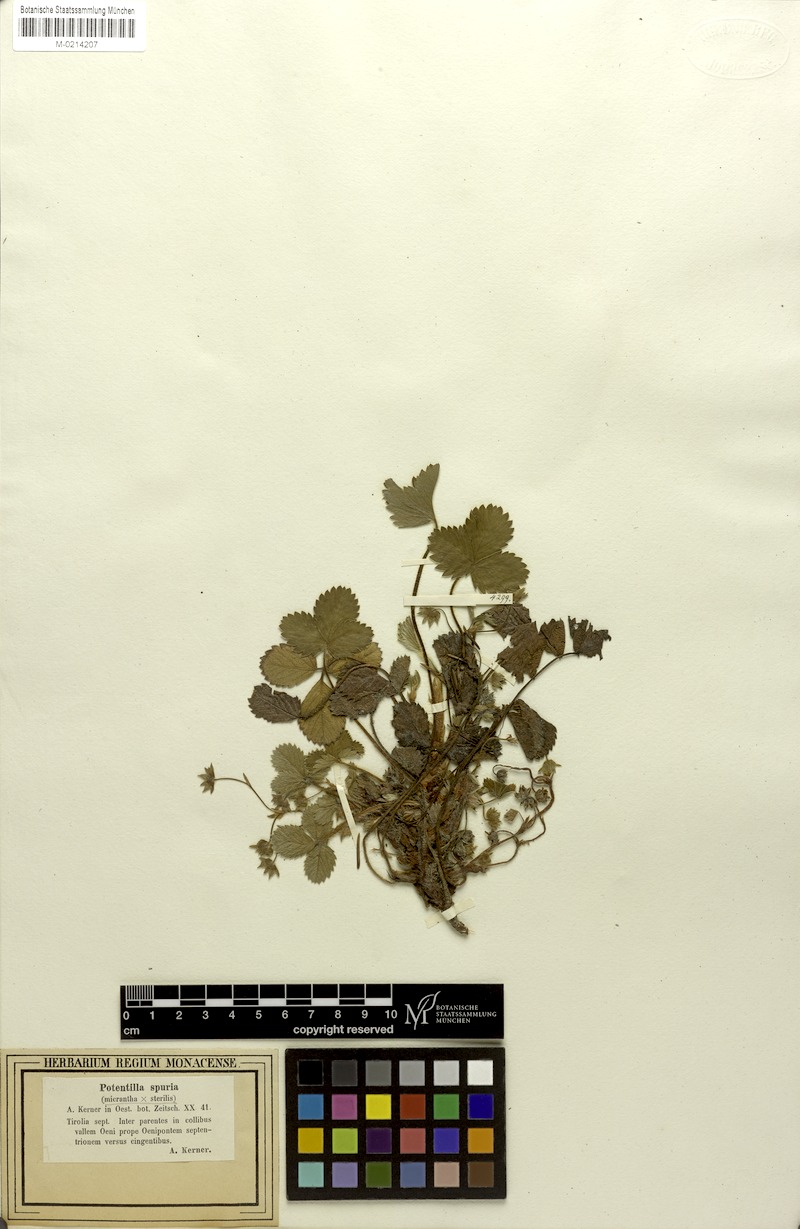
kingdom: Plantae
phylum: Tracheophyta
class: Magnoliopsida
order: Rosales
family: Rosaceae
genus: Potentilla
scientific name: Potentilla spuria
